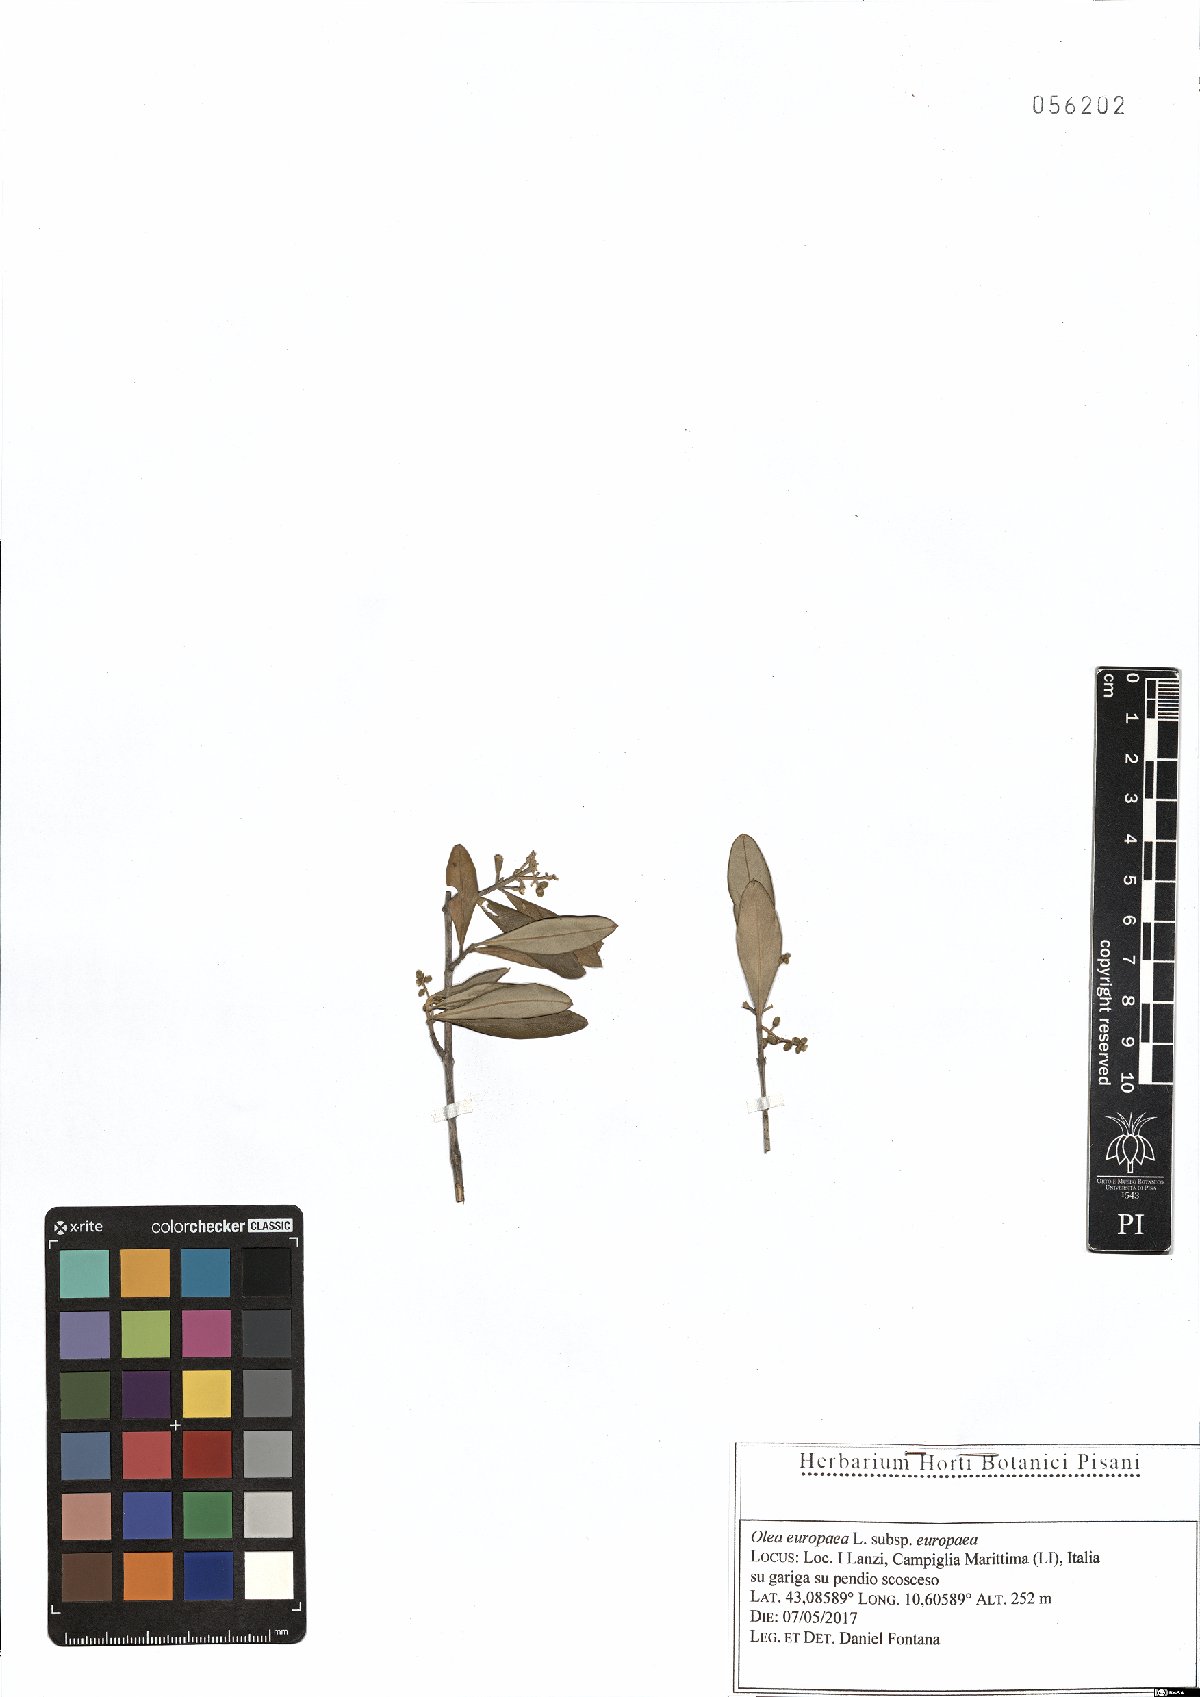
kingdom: Plantae
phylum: Tracheophyta
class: Magnoliopsida
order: Lamiales
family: Oleaceae
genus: Olea
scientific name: Olea europaea
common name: Olive
